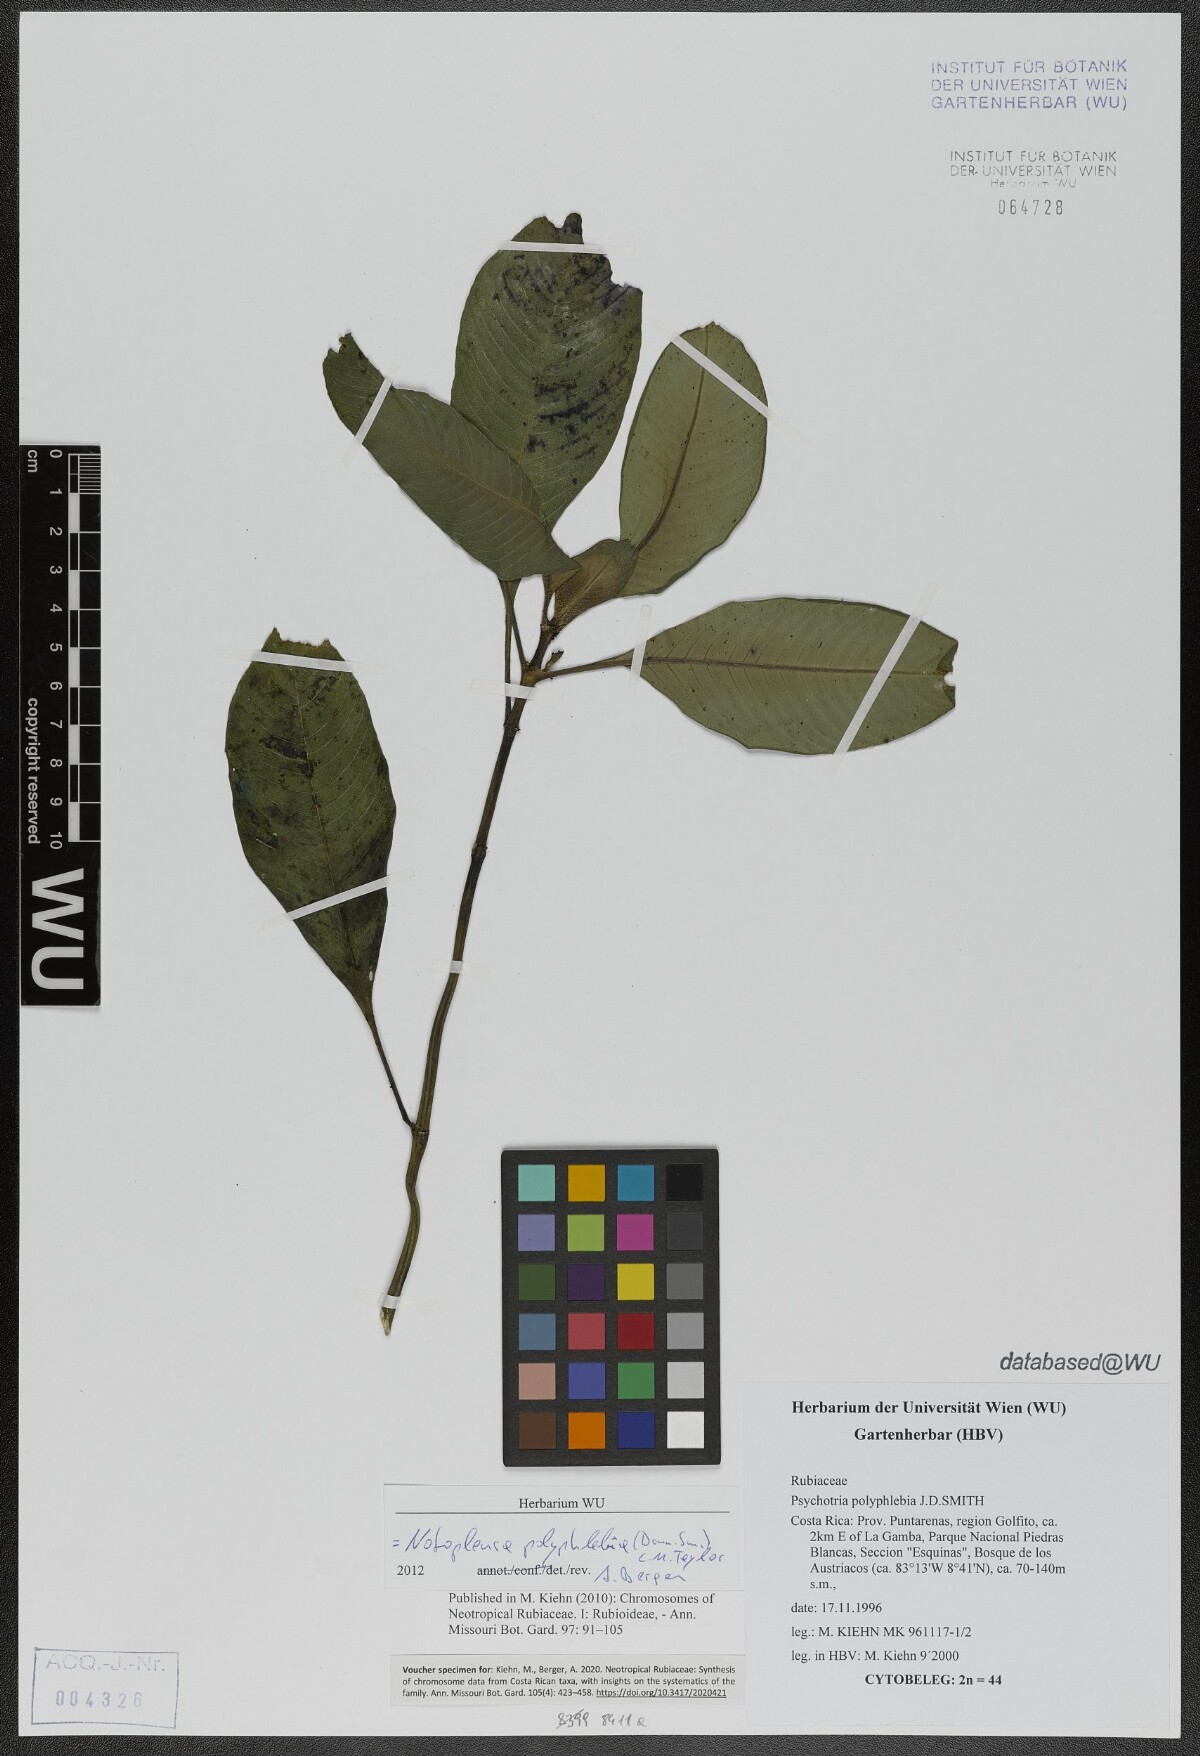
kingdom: Plantae
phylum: Tracheophyta
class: Magnoliopsida
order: Gentianales
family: Rubiaceae
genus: Notopleura
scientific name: Notopleura polyphlebia
